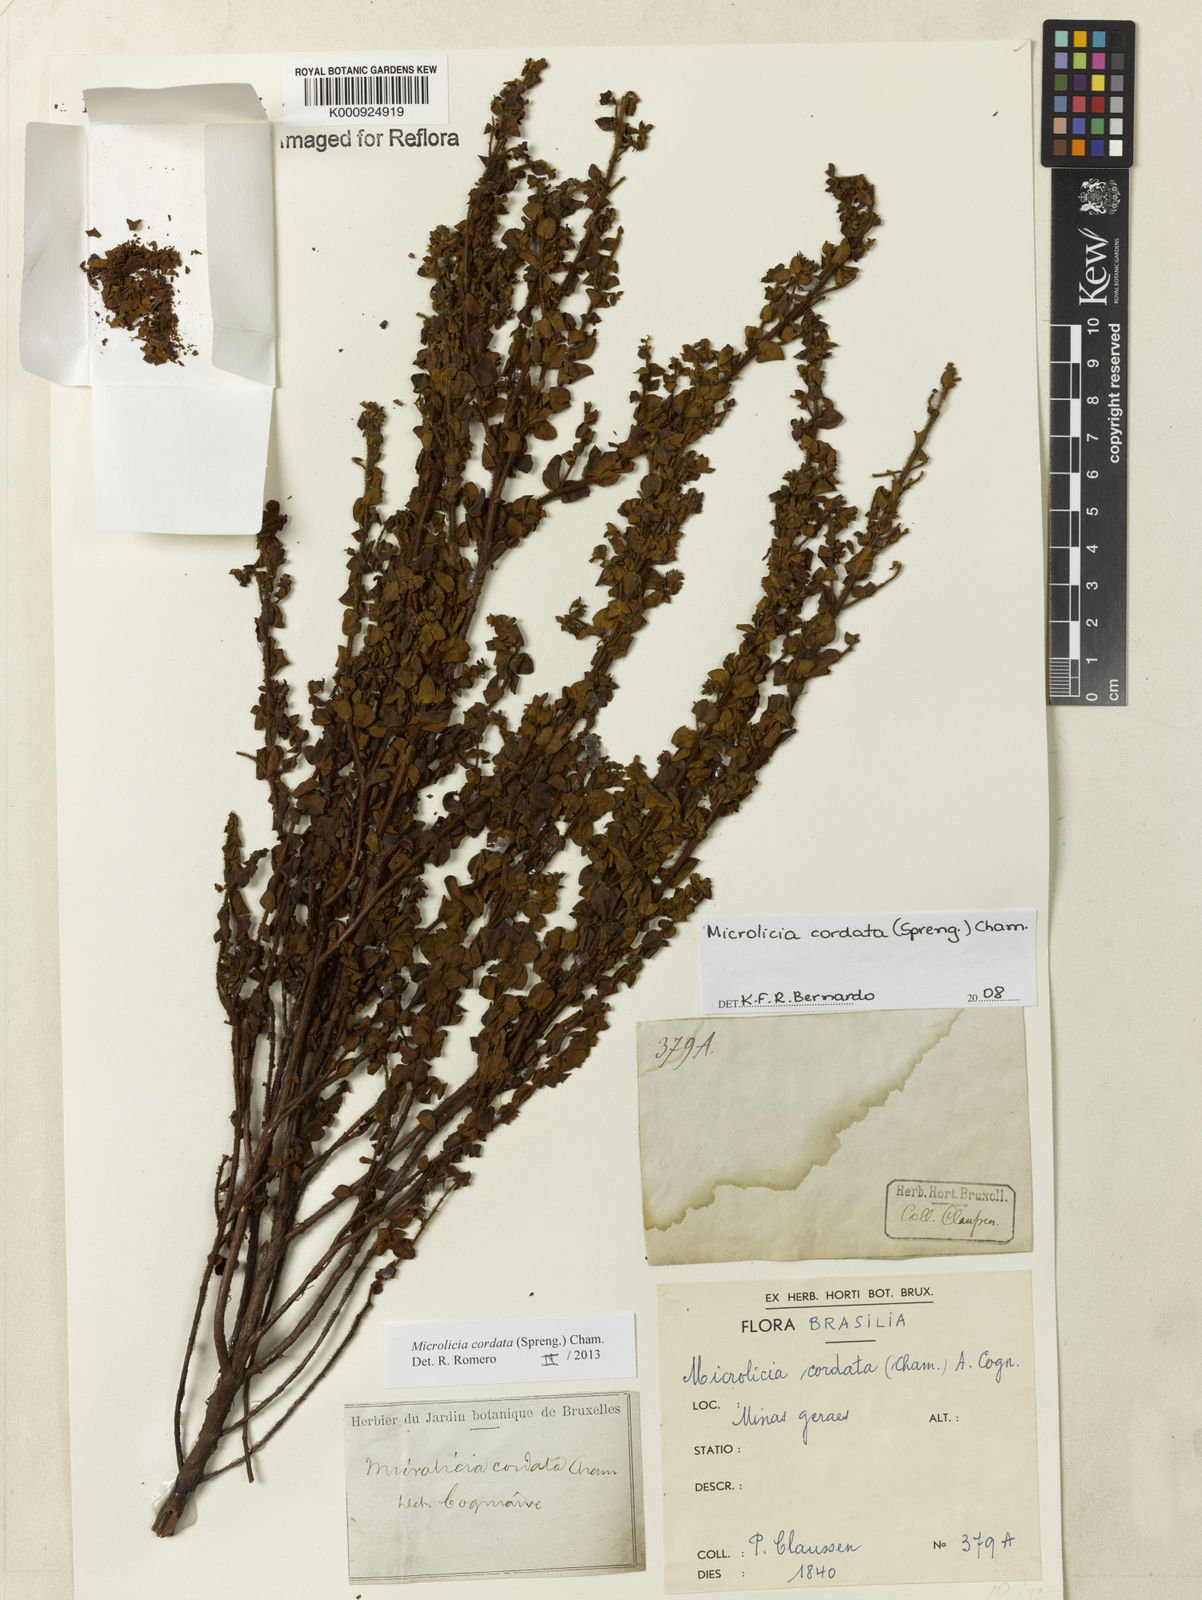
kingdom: Plantae
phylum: Tracheophyta
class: Magnoliopsida
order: Myrtales
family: Melastomataceae
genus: Microlicia
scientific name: Microlicia cordata
